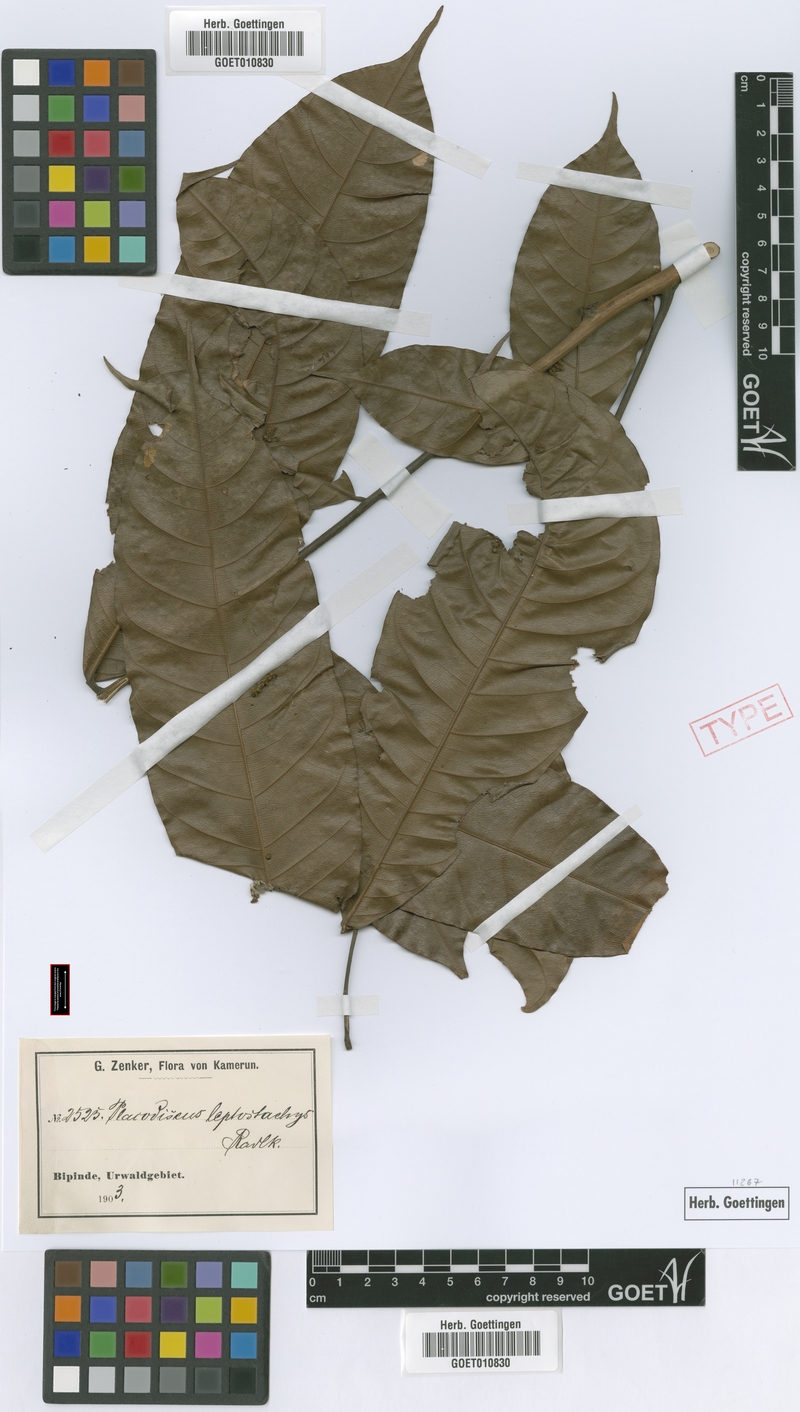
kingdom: Plantae
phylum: Tracheophyta
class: Magnoliopsida
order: Sapindales
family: Sapindaceae
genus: Placodiscus
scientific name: Placodiscus glandulosus
